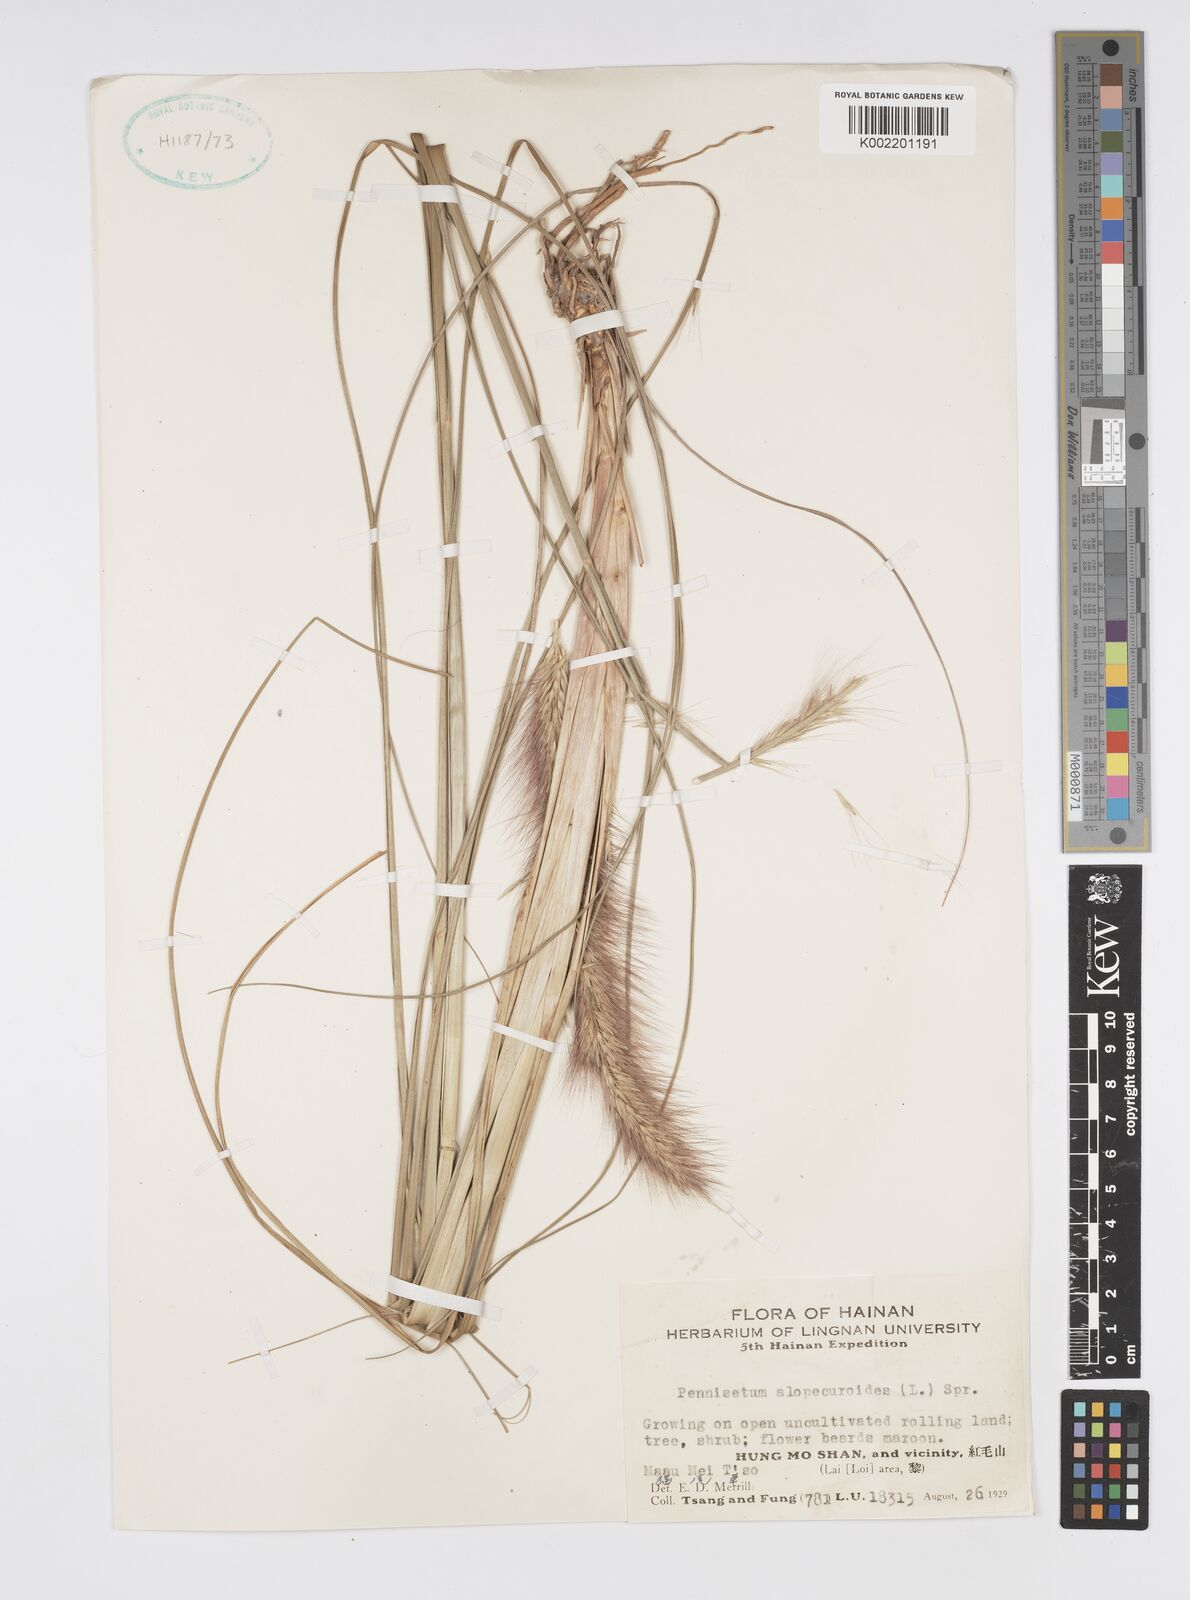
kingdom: Plantae
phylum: Tracheophyta
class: Liliopsida
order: Poales
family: Poaceae
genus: Cenchrus
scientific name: Cenchrus alopecuroides
